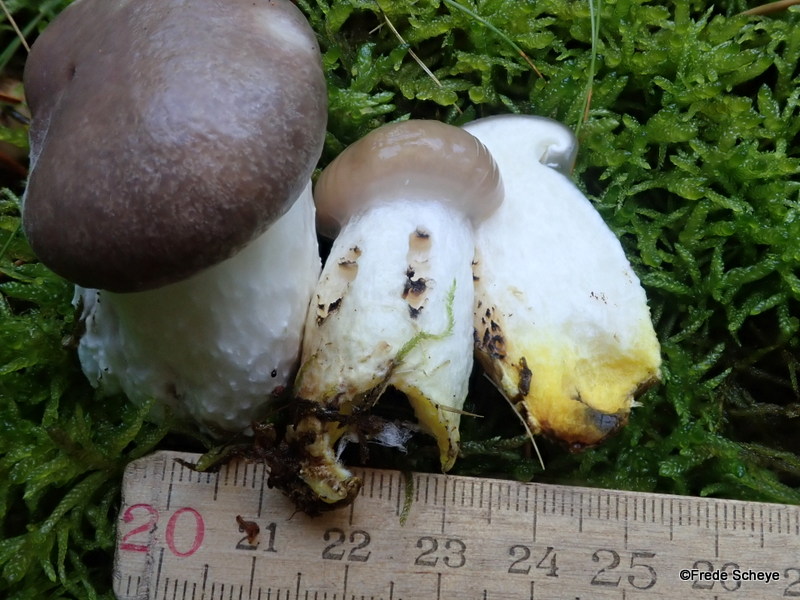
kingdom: Fungi
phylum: Basidiomycota
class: Agaricomycetes
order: Boletales
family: Gomphidiaceae
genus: Gomphidius
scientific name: Gomphidius glutinosus
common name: grå slimslør
